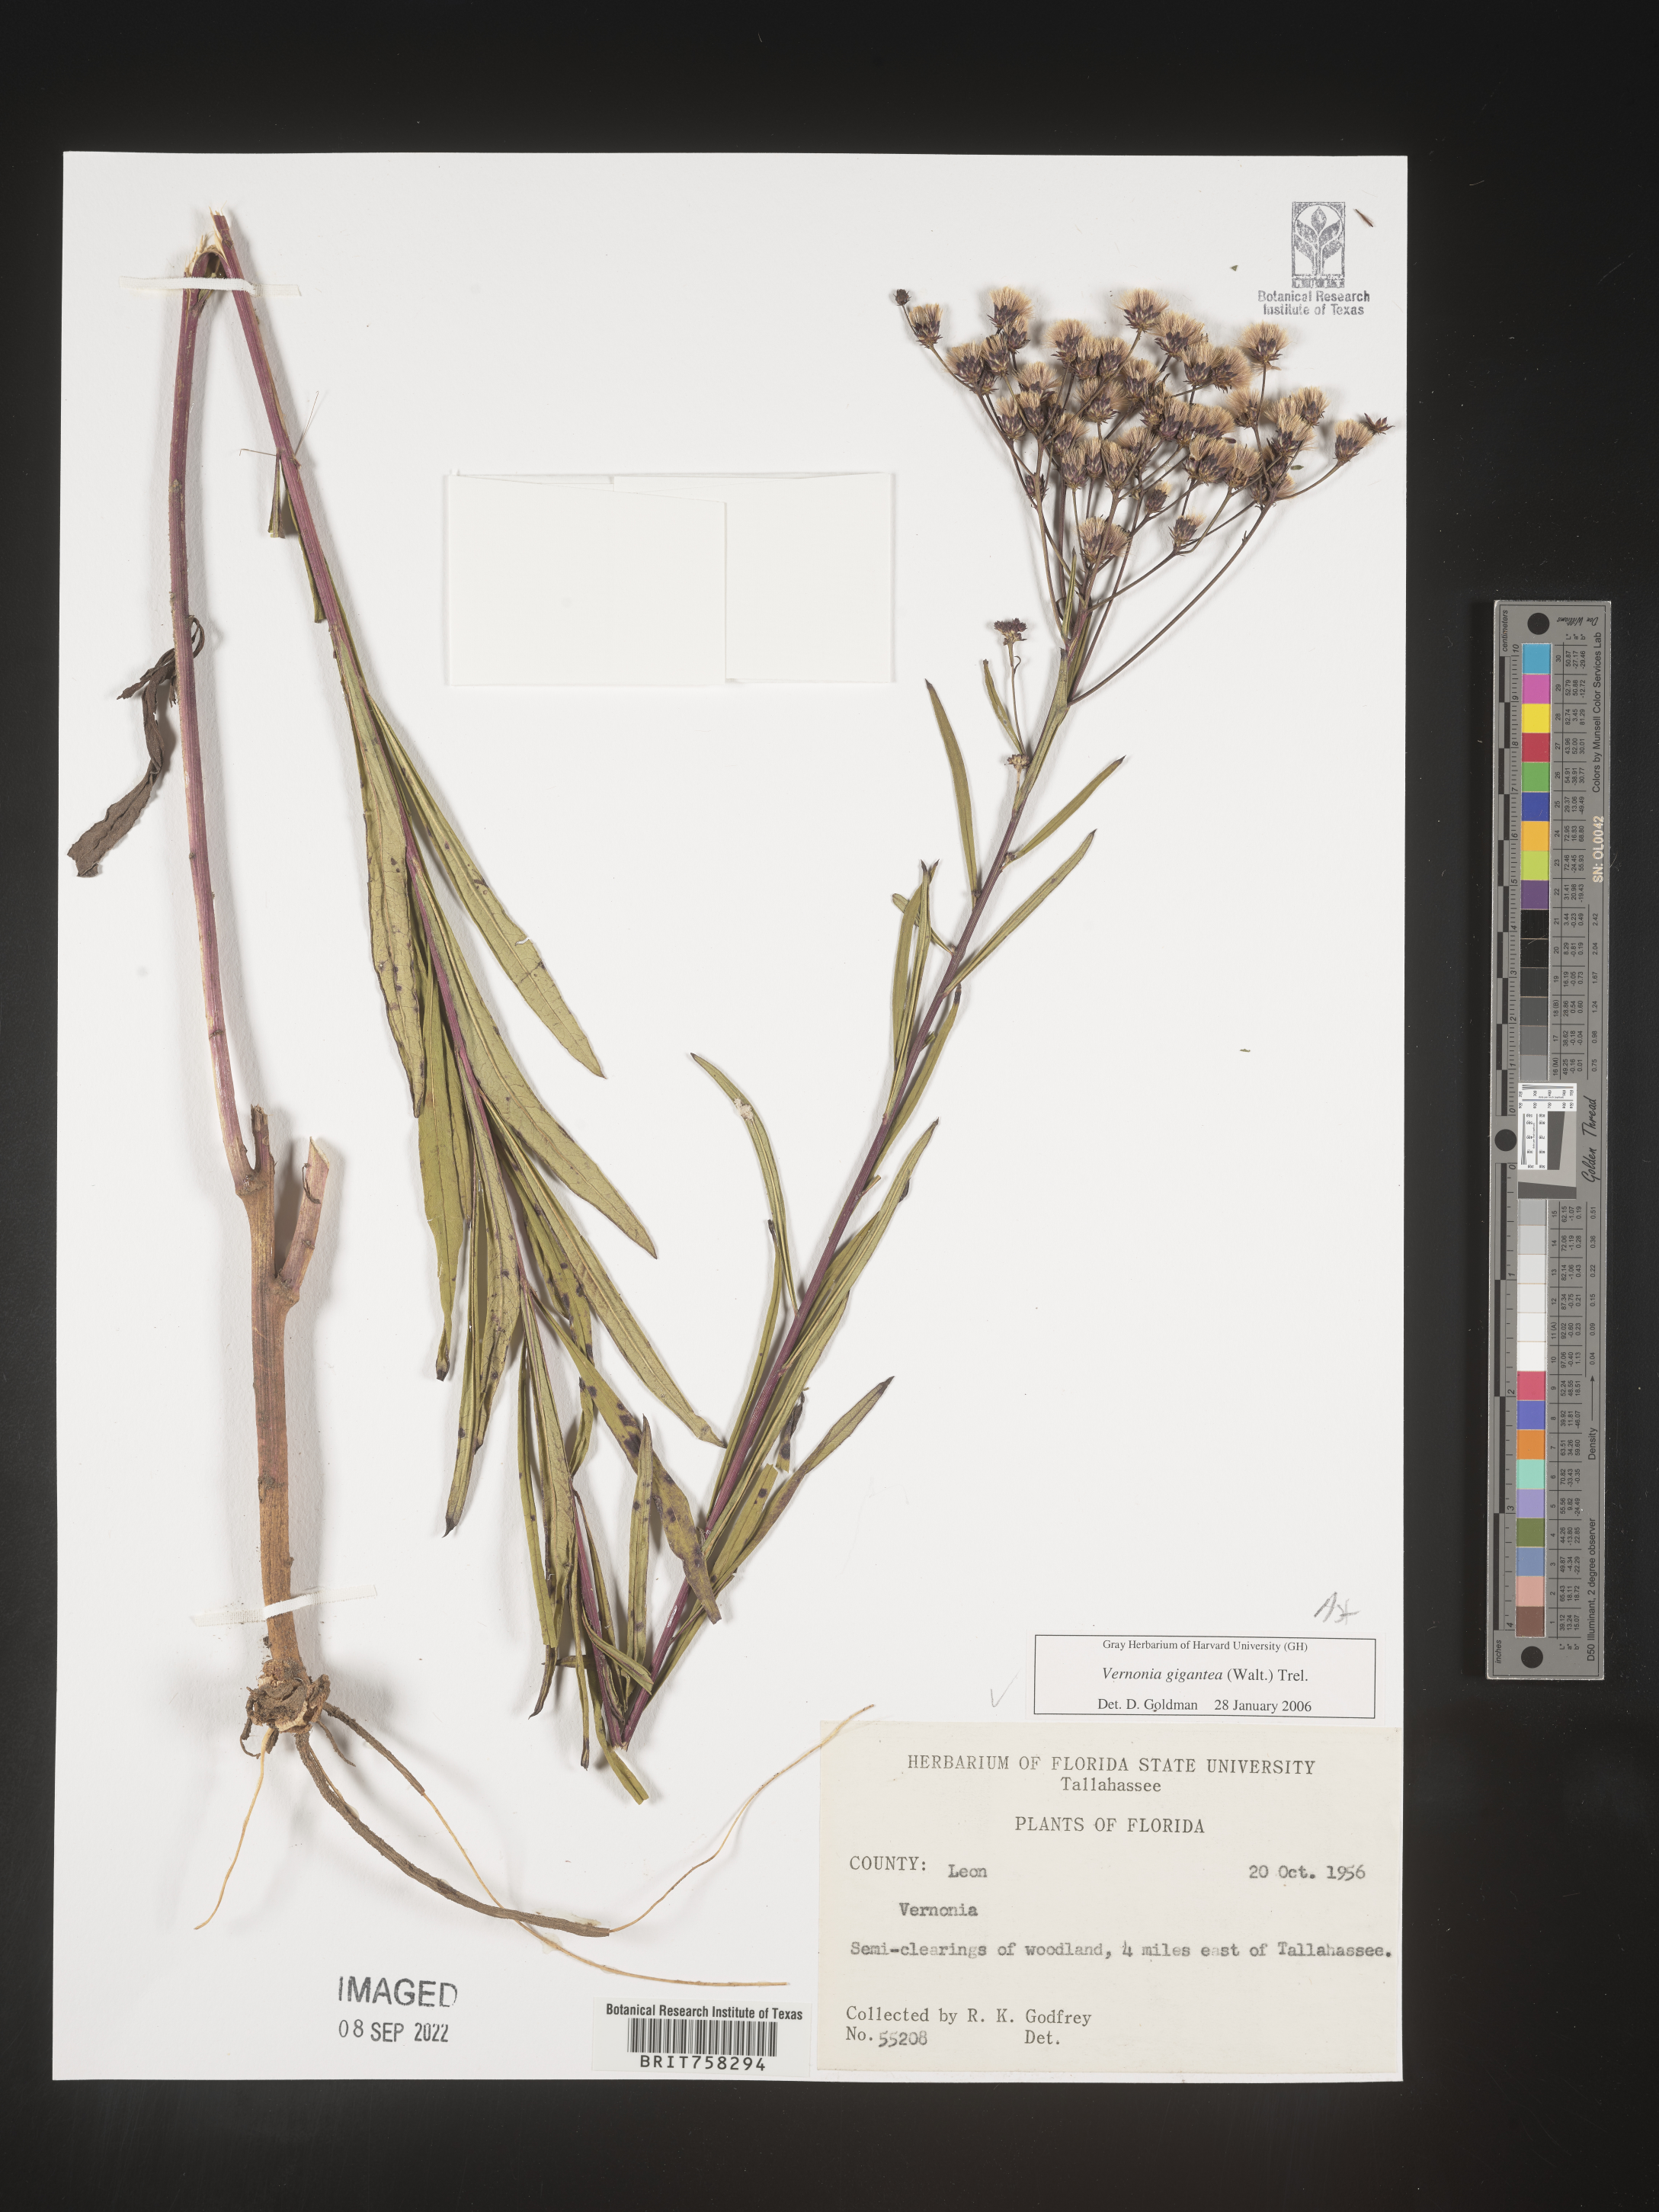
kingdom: Plantae
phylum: Tracheophyta
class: Magnoliopsida
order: Asterales
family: Asteraceae
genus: Vernonia
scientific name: Vernonia gigantea
